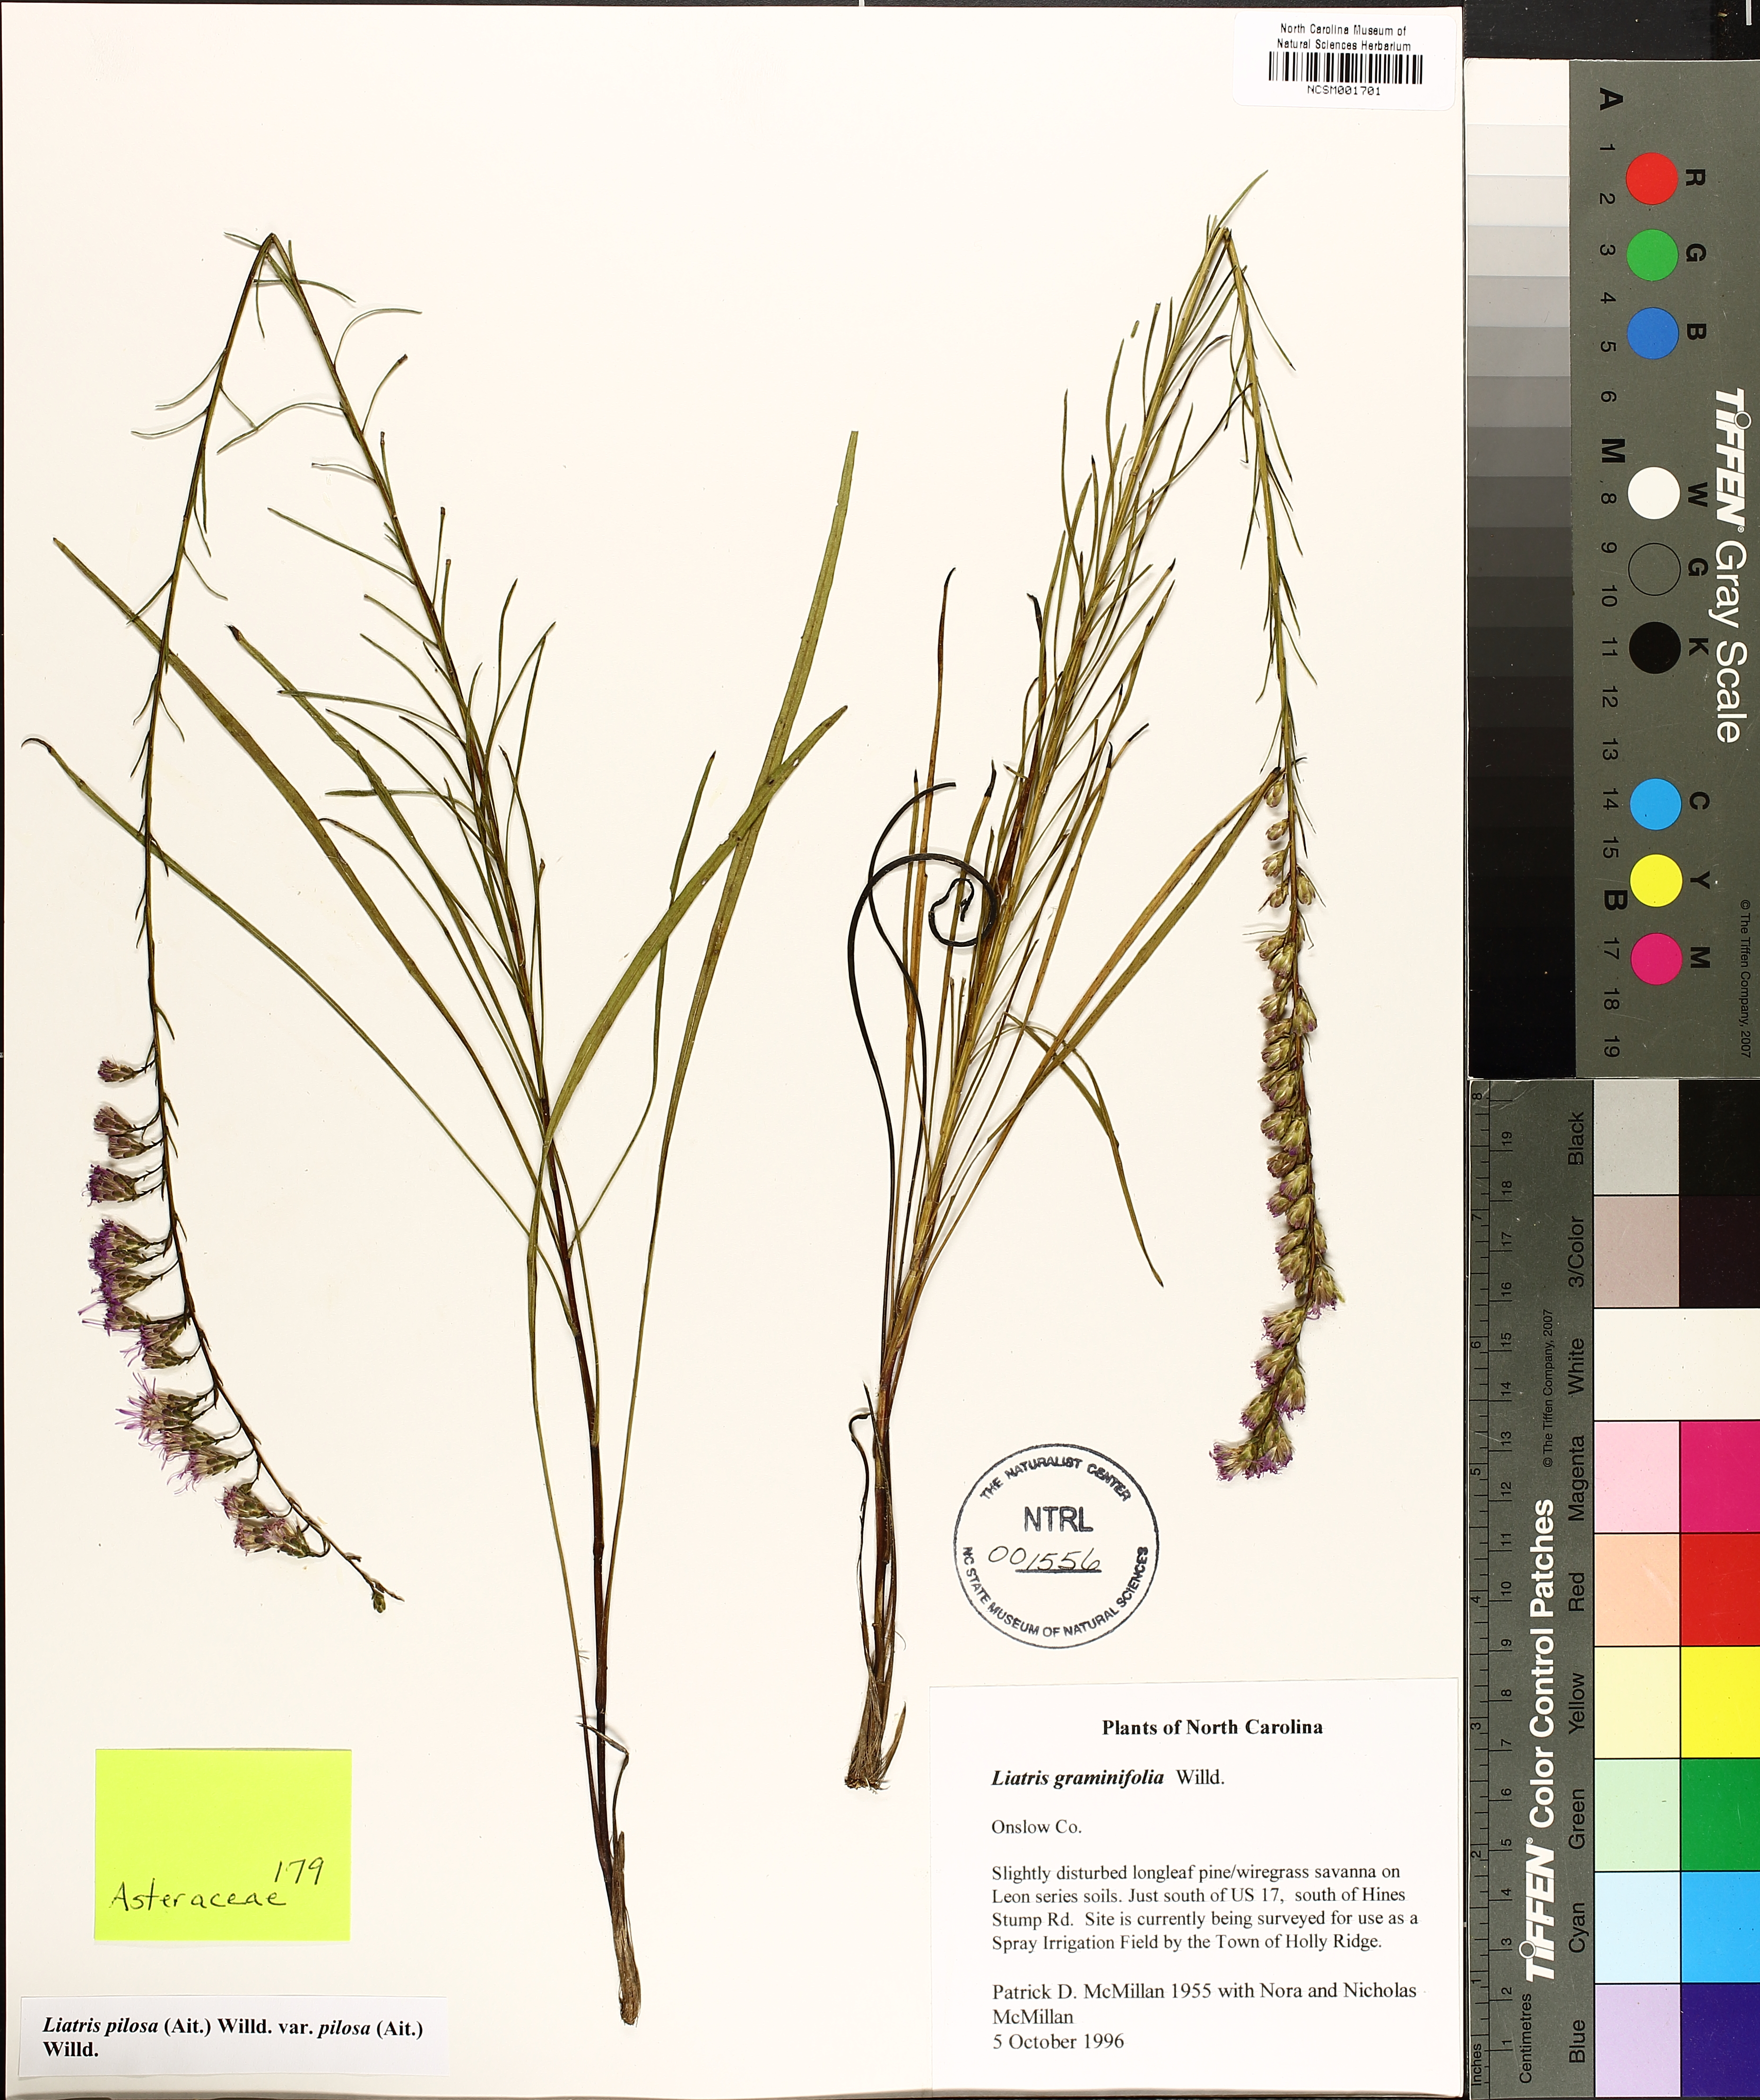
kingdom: Plantae
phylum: Tracheophyta
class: Magnoliopsida
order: Asterales
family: Asteraceae
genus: Liatris
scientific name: Liatris pilosa
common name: Grass-leaf gayfeather
